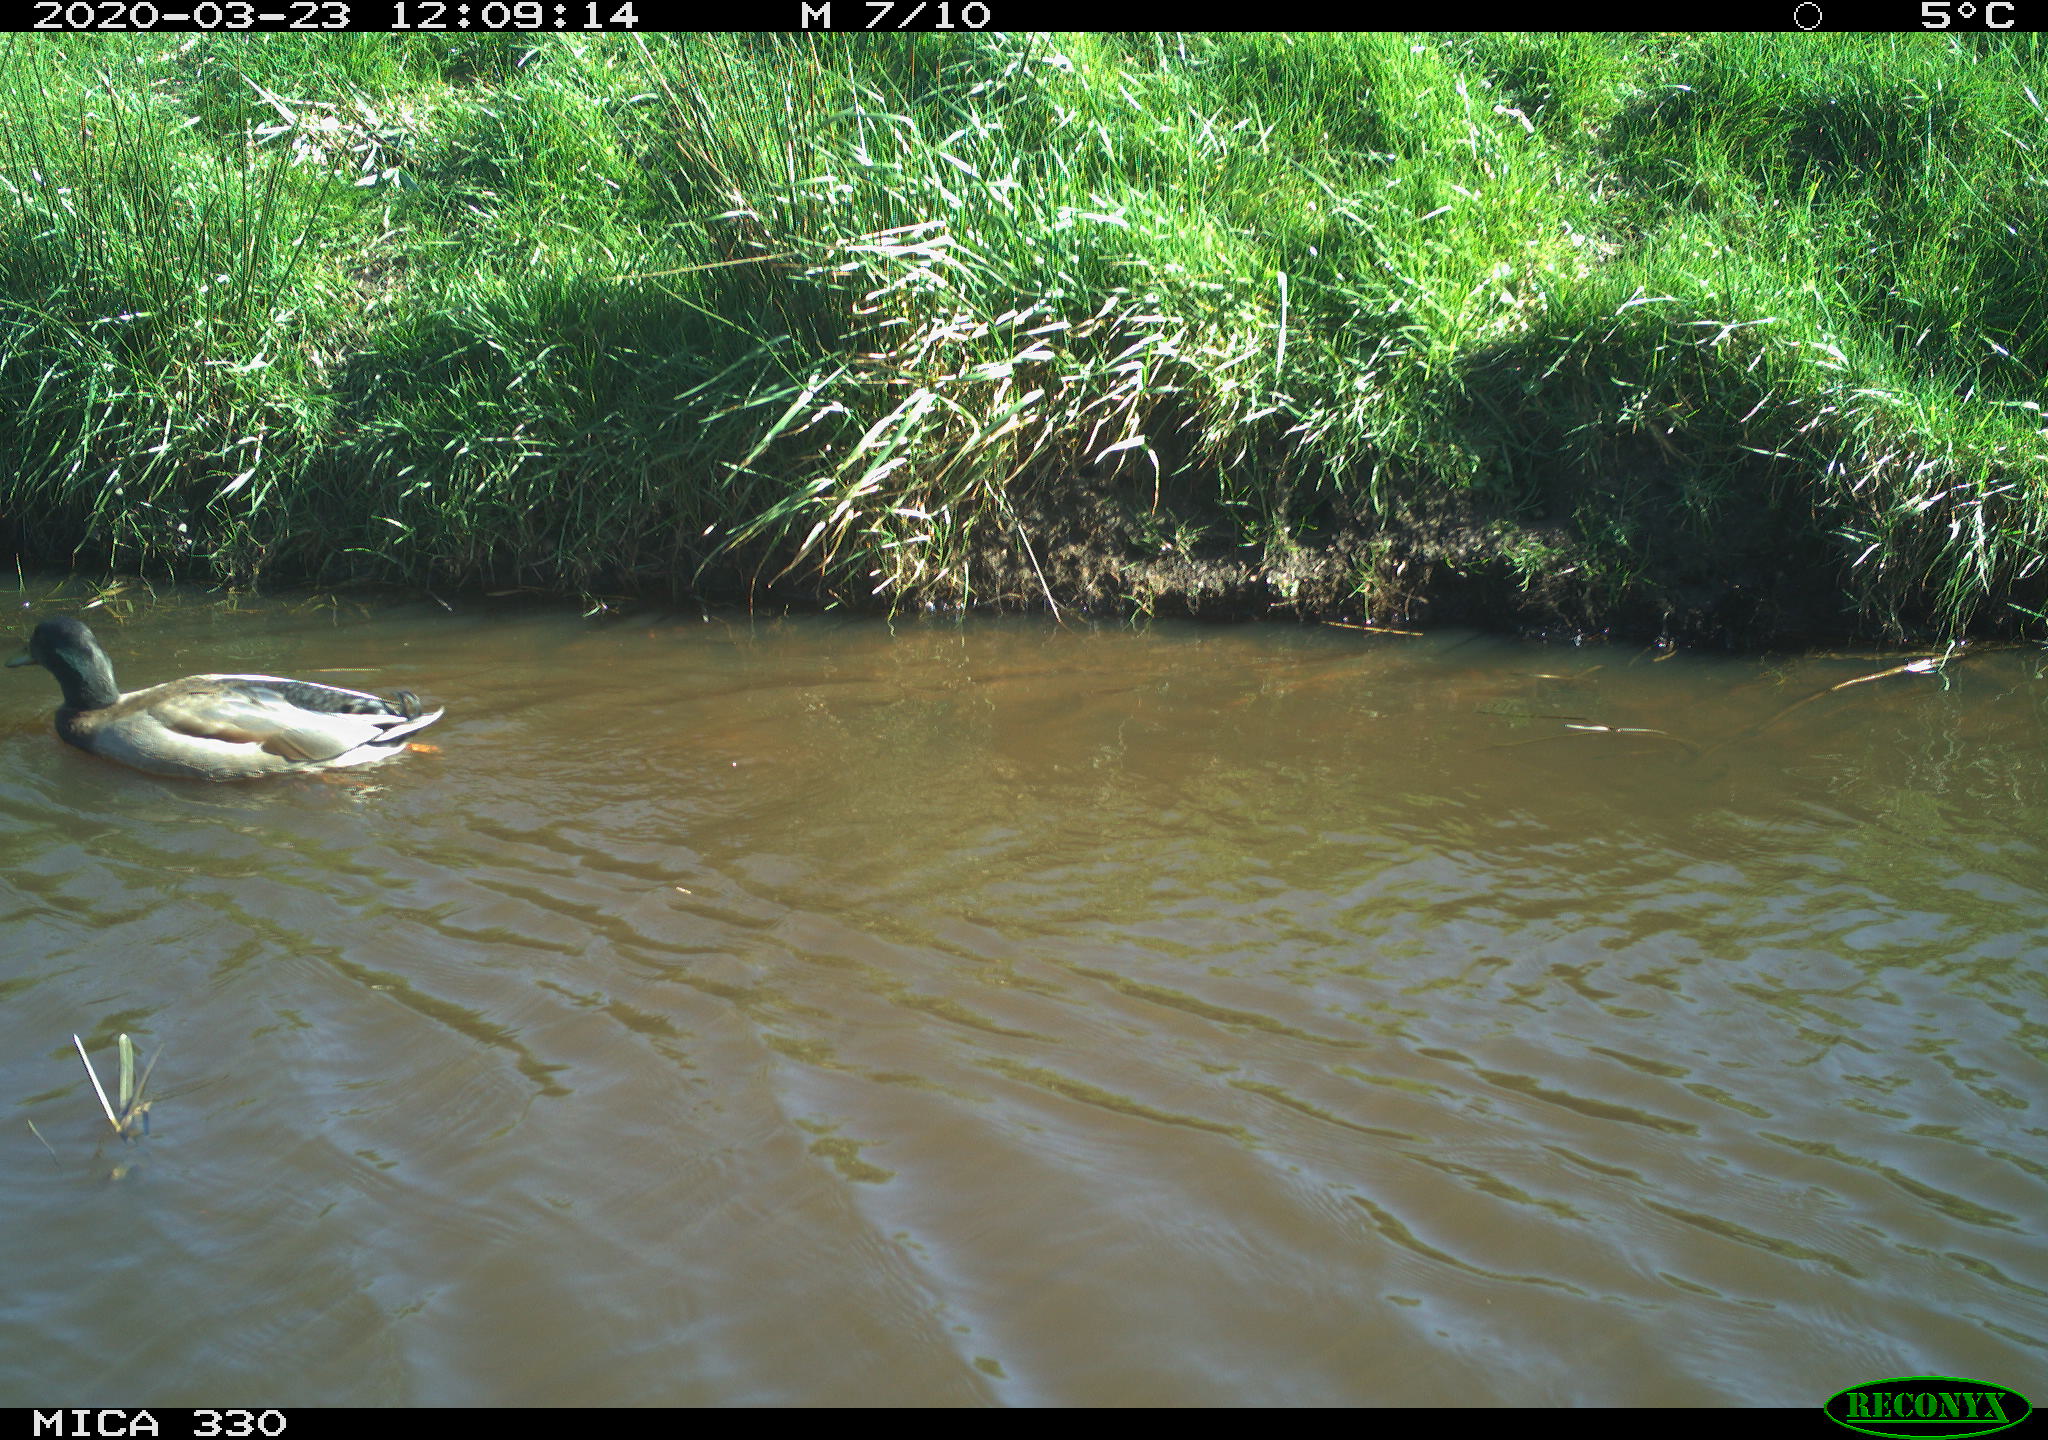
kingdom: Animalia
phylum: Chordata
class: Aves
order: Anseriformes
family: Anatidae
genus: Anas
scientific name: Anas platyrhynchos
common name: Mallard
